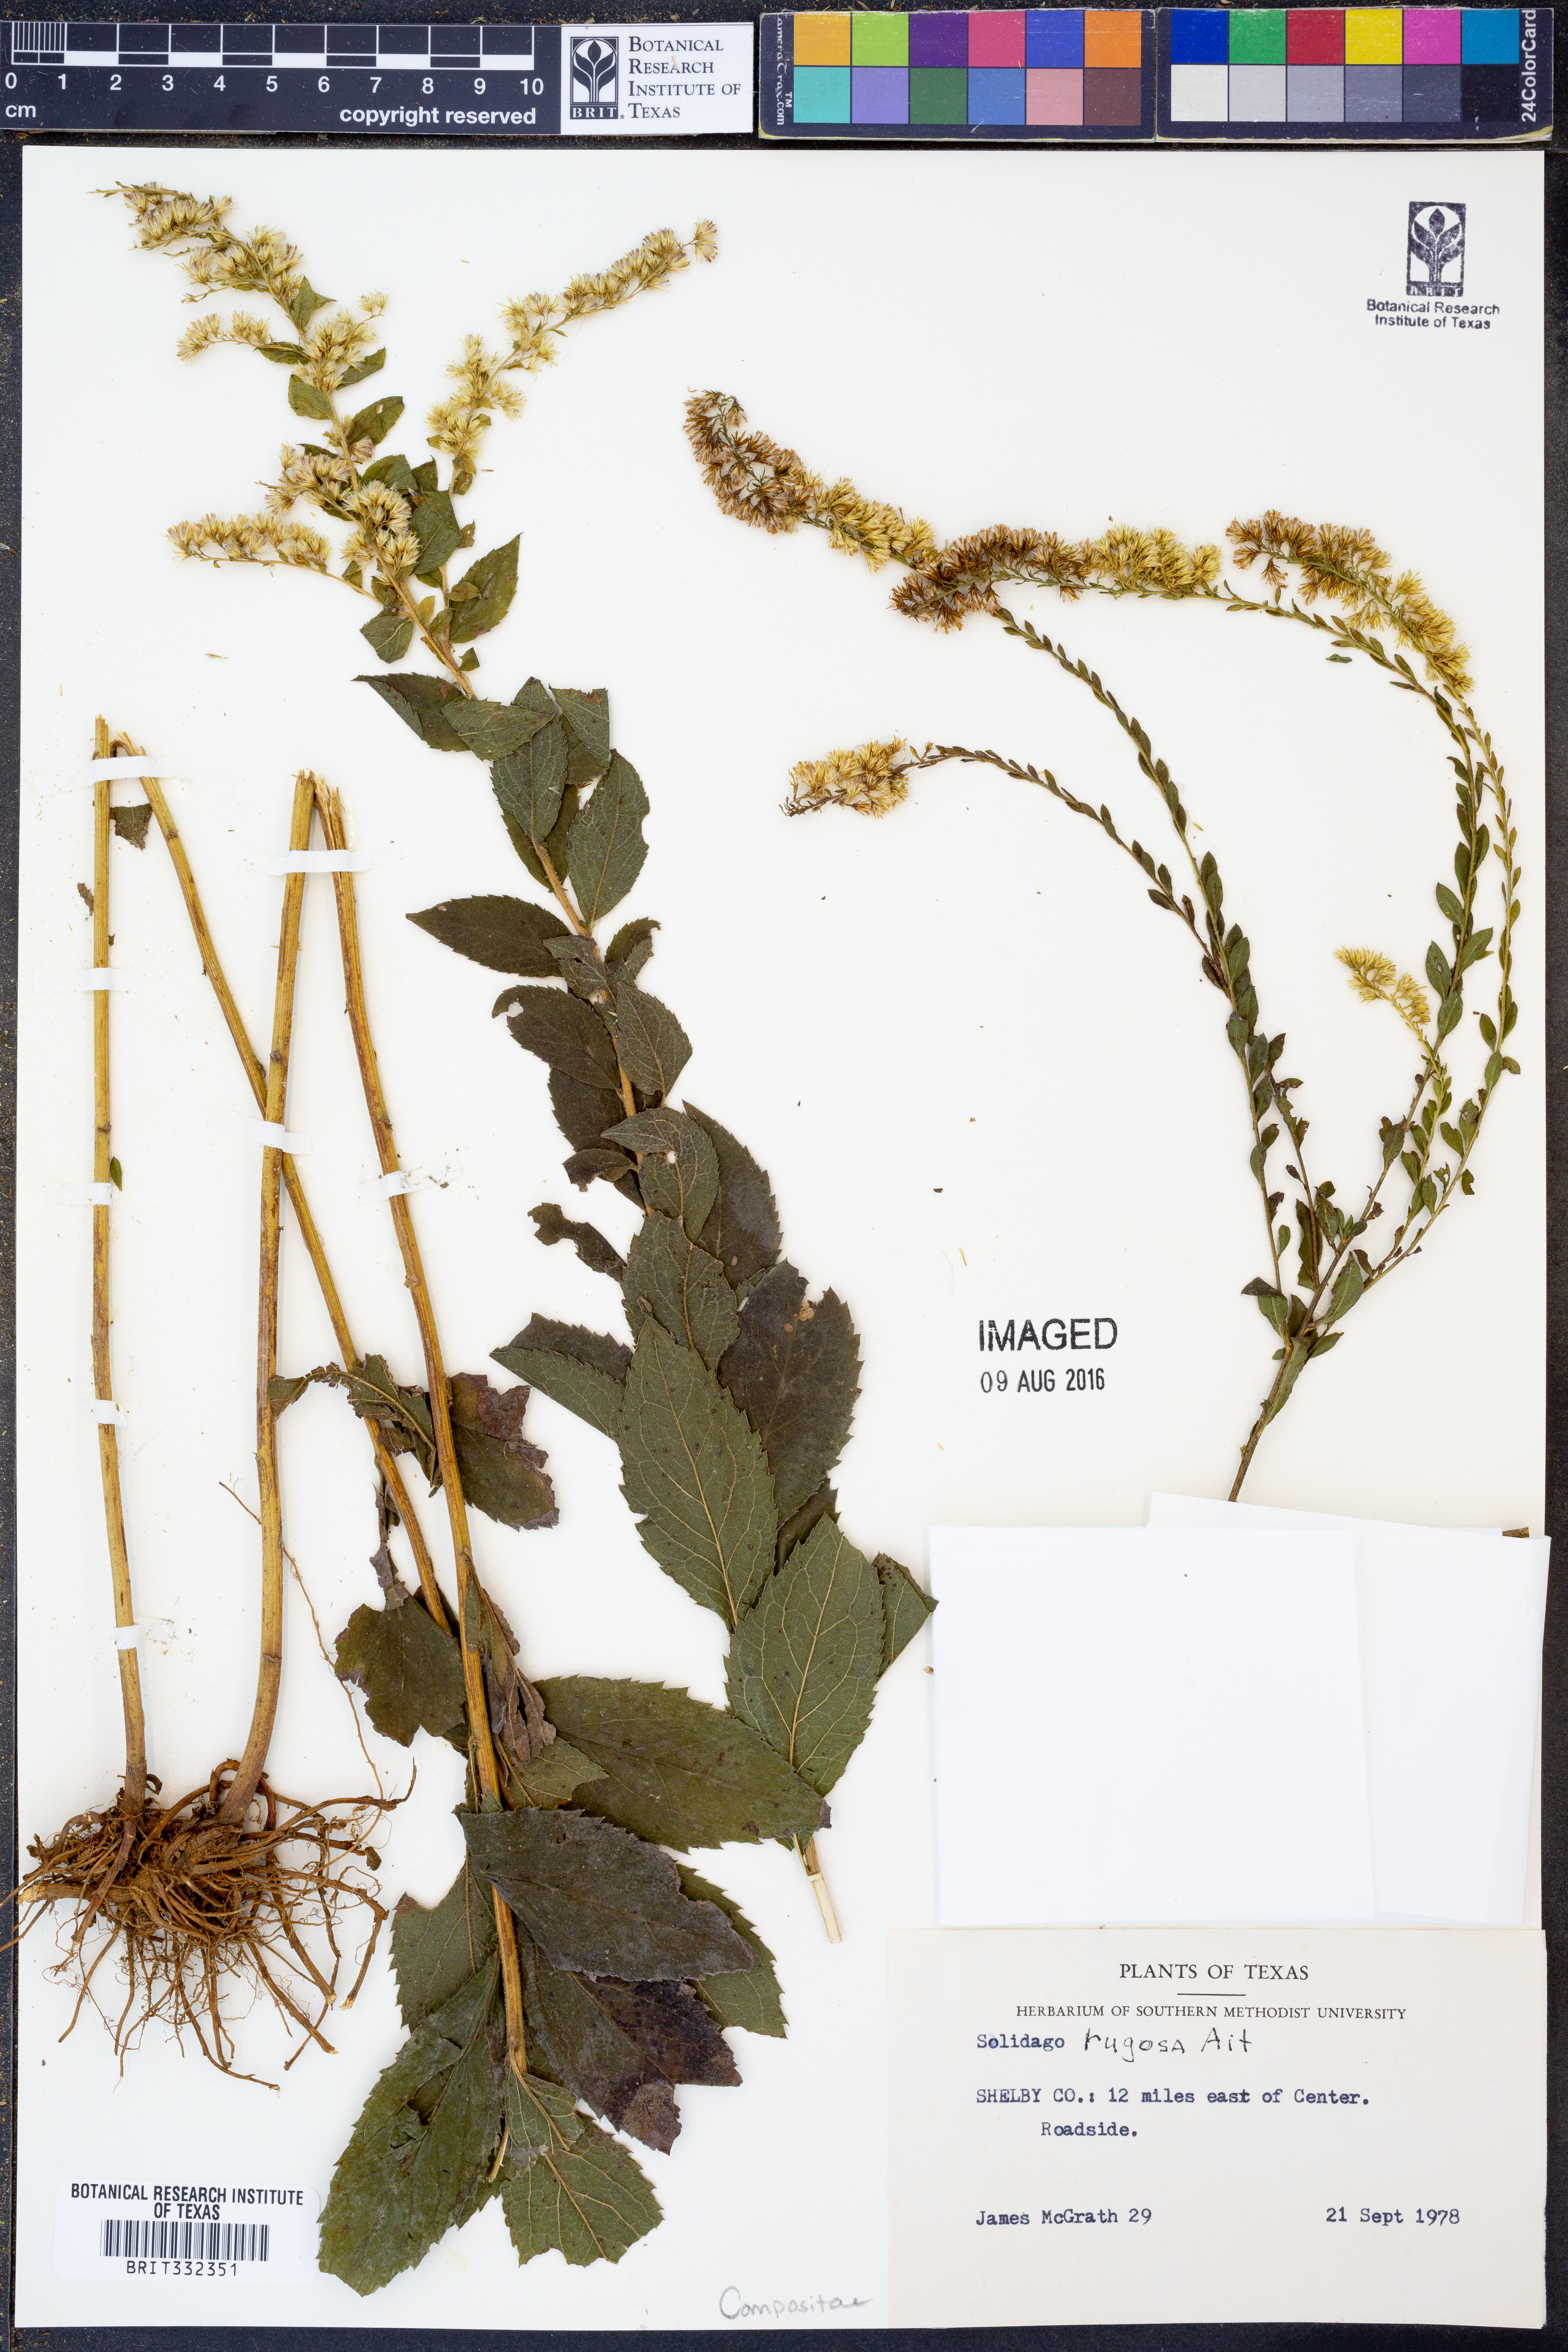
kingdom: Plantae
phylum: Tracheophyta
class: Magnoliopsida
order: Asterales
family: Asteraceae
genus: Solidago
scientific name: Solidago rugosa
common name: Rough-stemmed goldenrod
